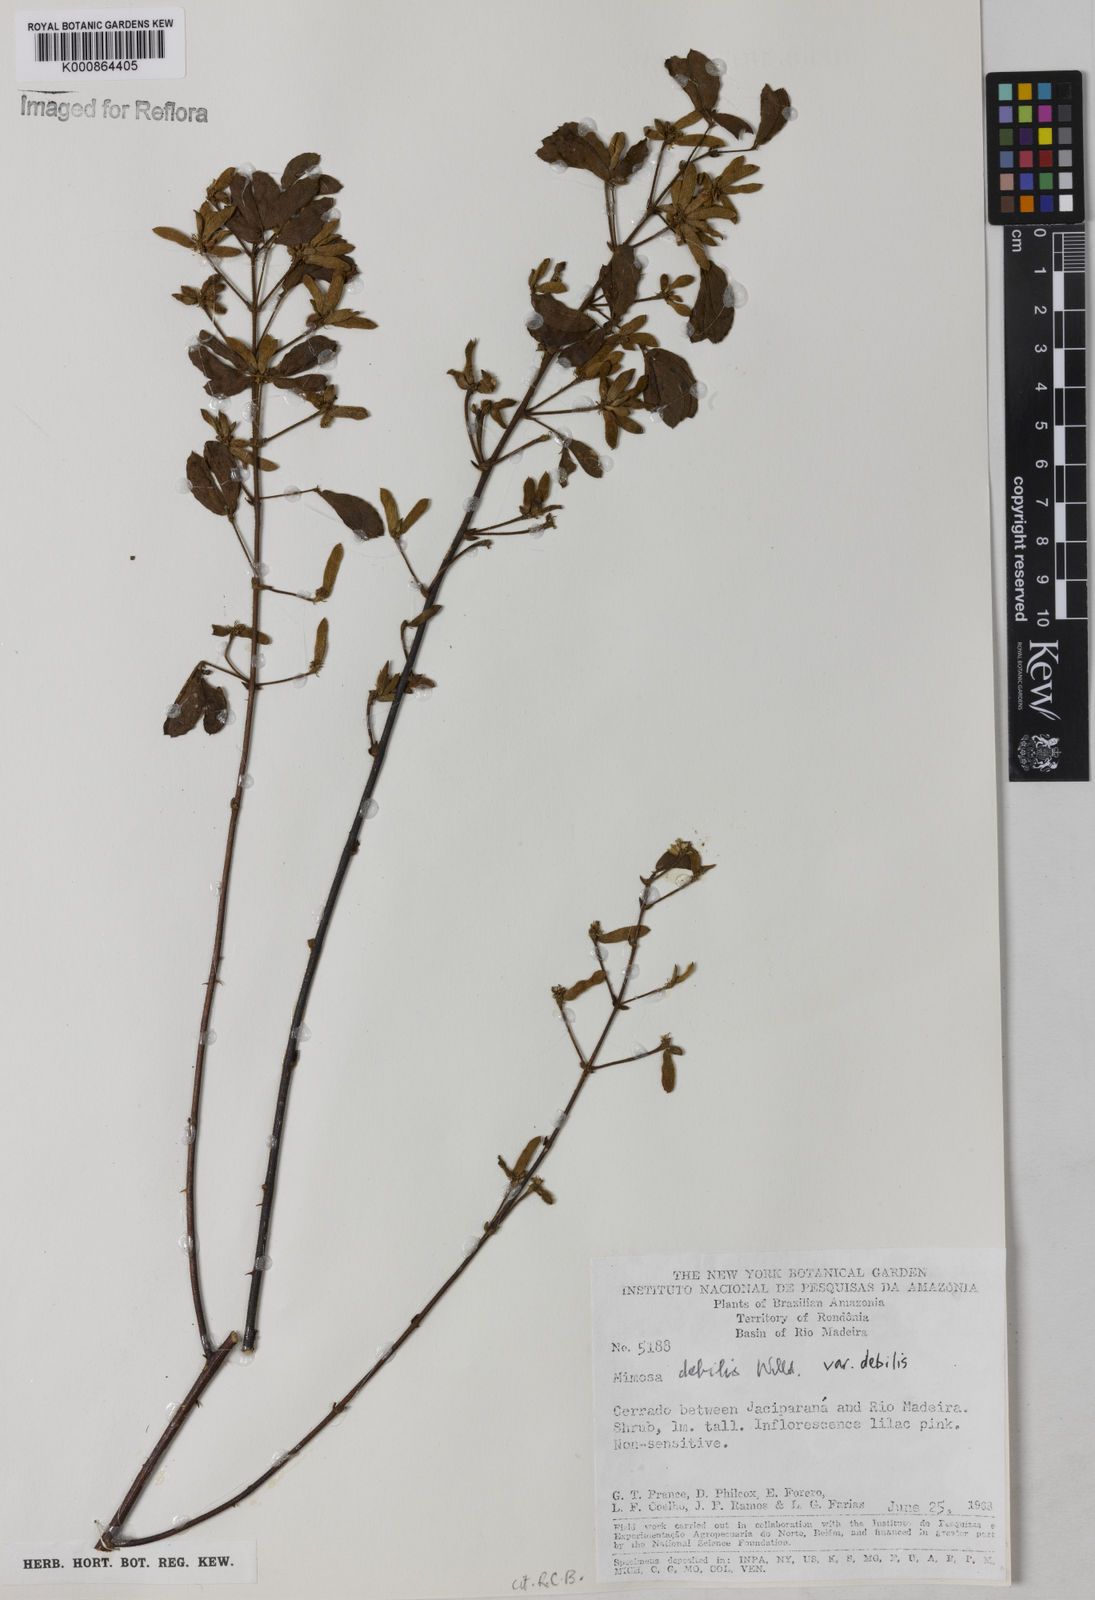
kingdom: Plantae
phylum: Tracheophyta
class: Magnoliopsida
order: Fabales
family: Fabaceae
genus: Mimosa
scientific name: Mimosa debilis
